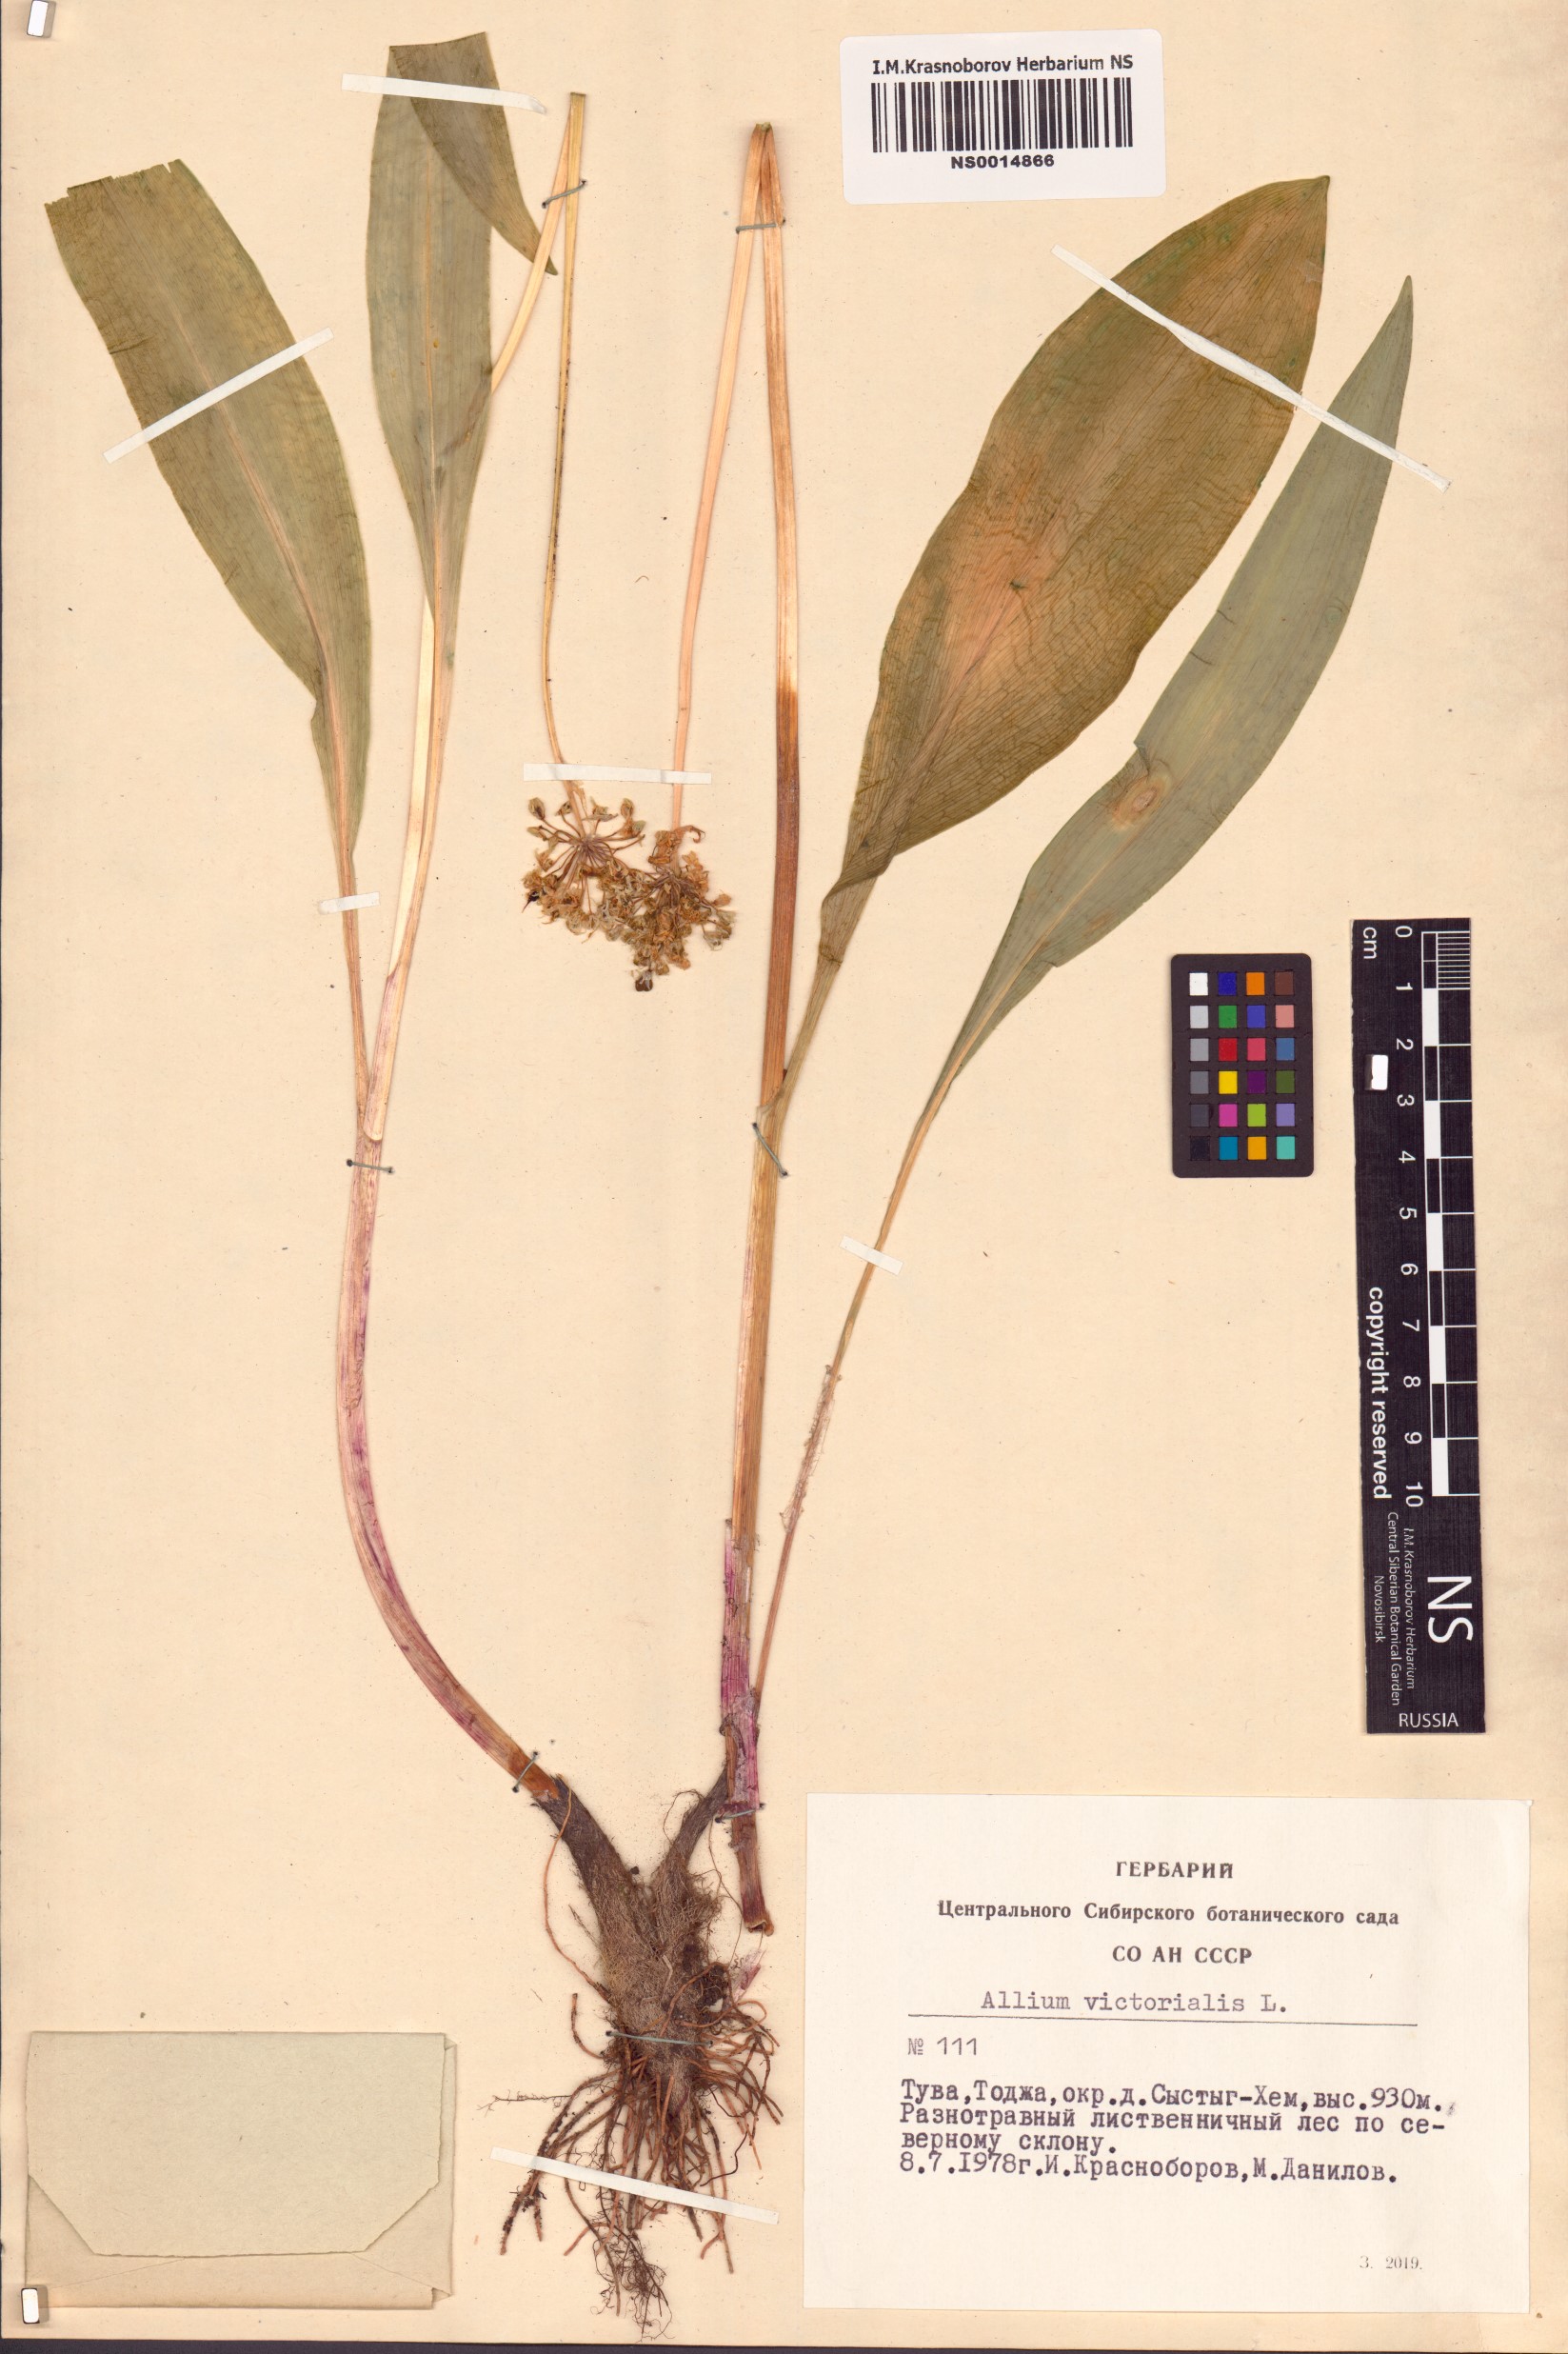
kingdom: Plantae
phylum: Tracheophyta
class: Liliopsida
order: Asparagales
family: Amaryllidaceae
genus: Allium
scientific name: Allium victorialis
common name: Alpine leek
